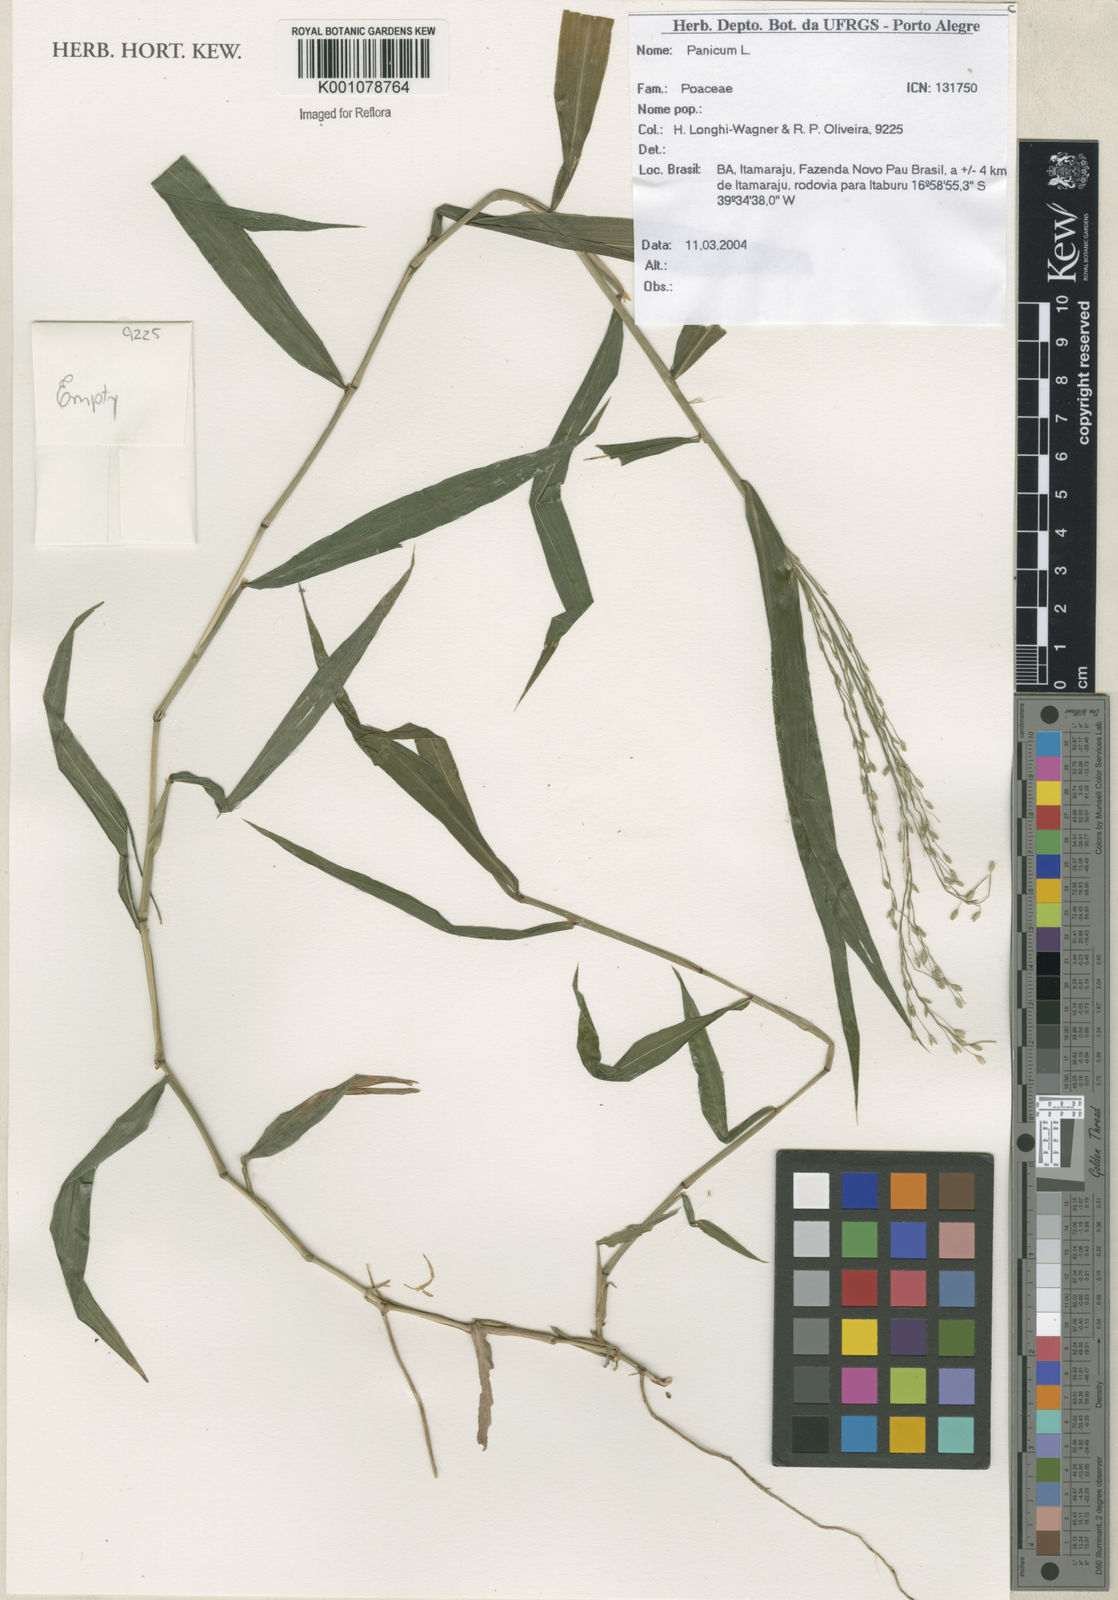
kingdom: Plantae
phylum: Tracheophyta
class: Liliopsida
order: Poales
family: Poaceae
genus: Panicum
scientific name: Panicum
